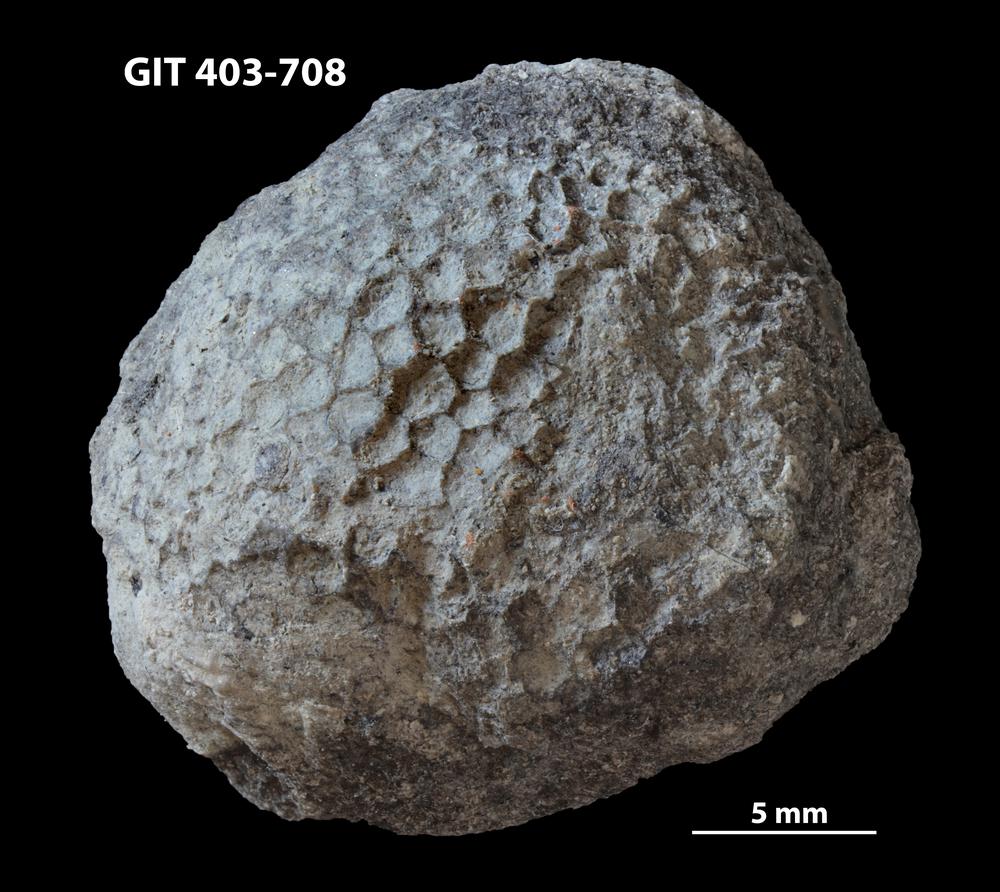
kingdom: Animalia
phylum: Cnidaria
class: Anthozoa
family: Favositidae
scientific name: Favositidae
